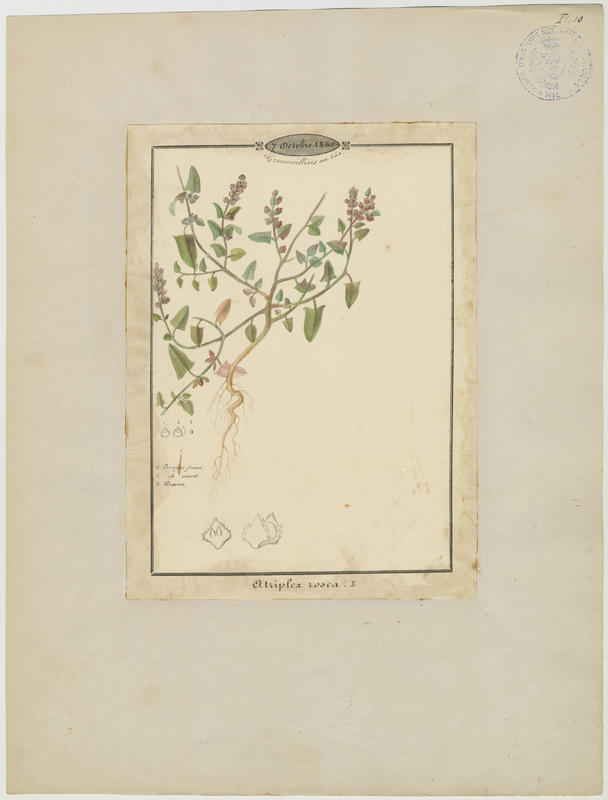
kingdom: Plantae
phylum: Tracheophyta
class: Magnoliopsida
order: Caryophyllales
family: Amaranthaceae
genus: Atriplex
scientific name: Atriplex rosea
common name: Tumbling saltweed
